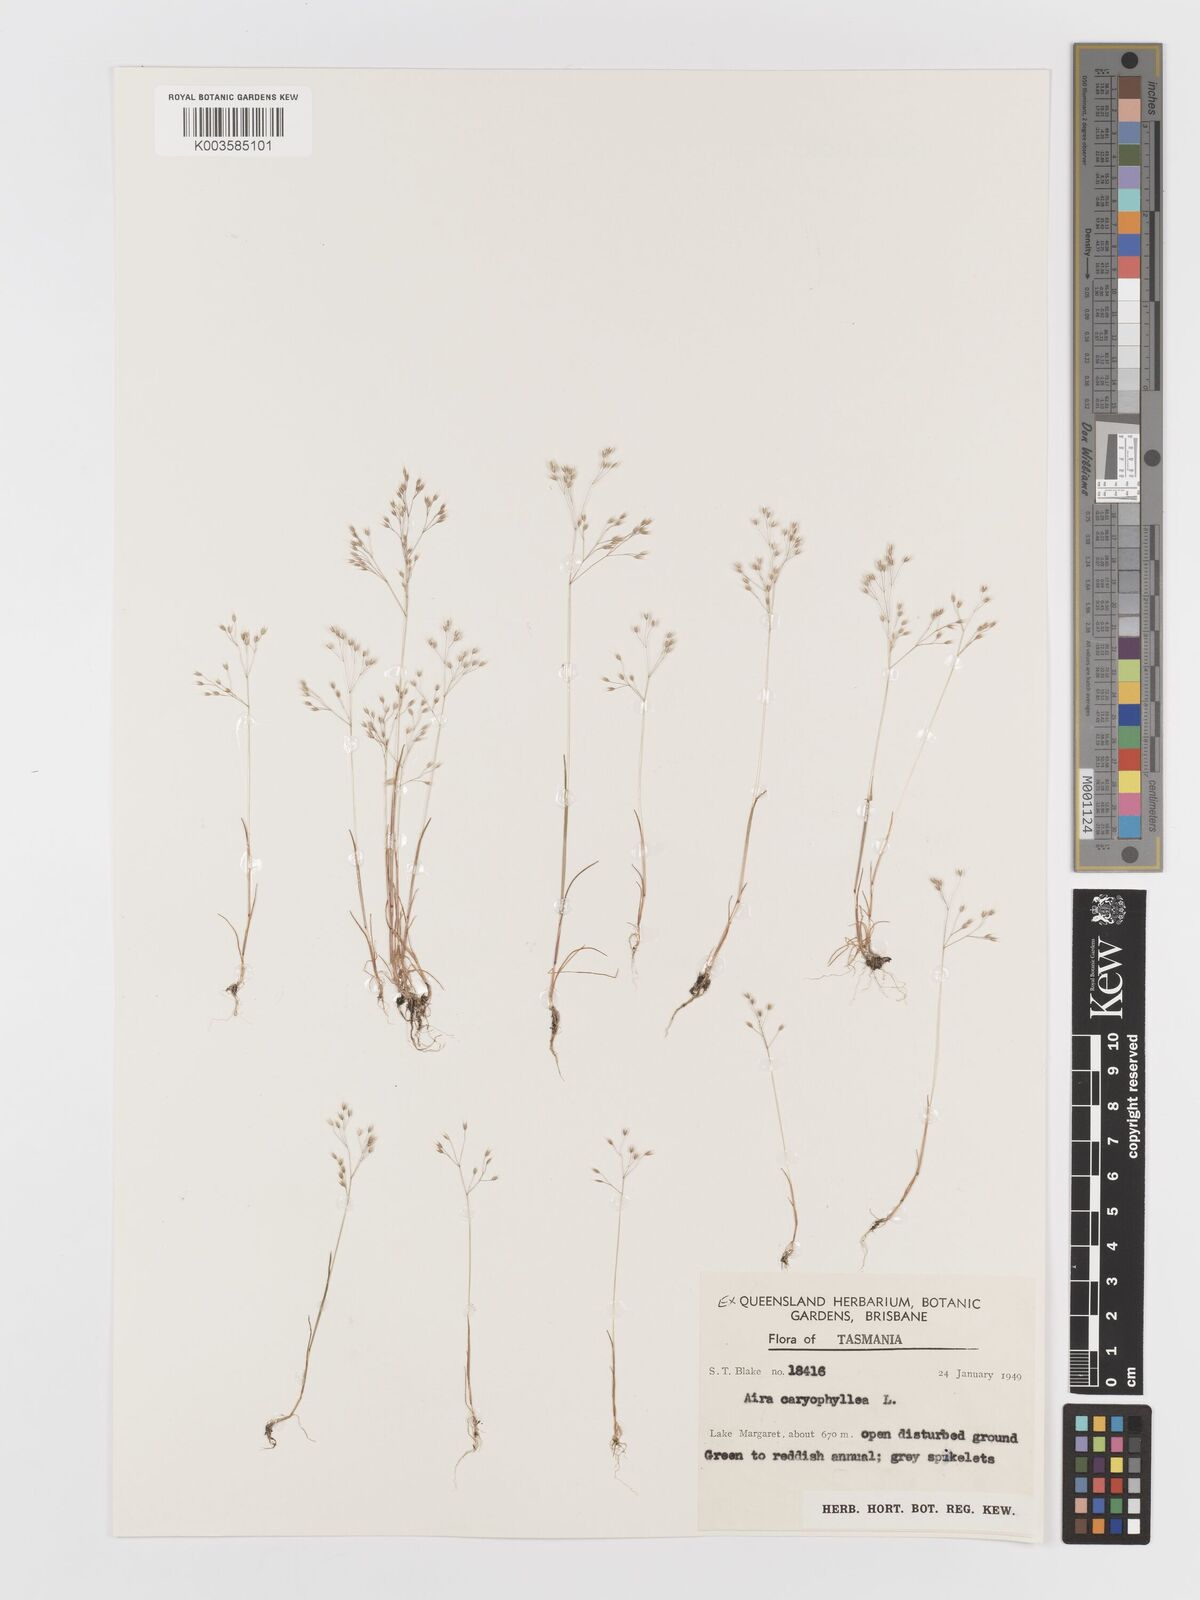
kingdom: Plantae
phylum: Tracheophyta
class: Liliopsida
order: Poales
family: Poaceae
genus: Aira
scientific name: Aira caryophyllea
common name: Silver hairgrass
